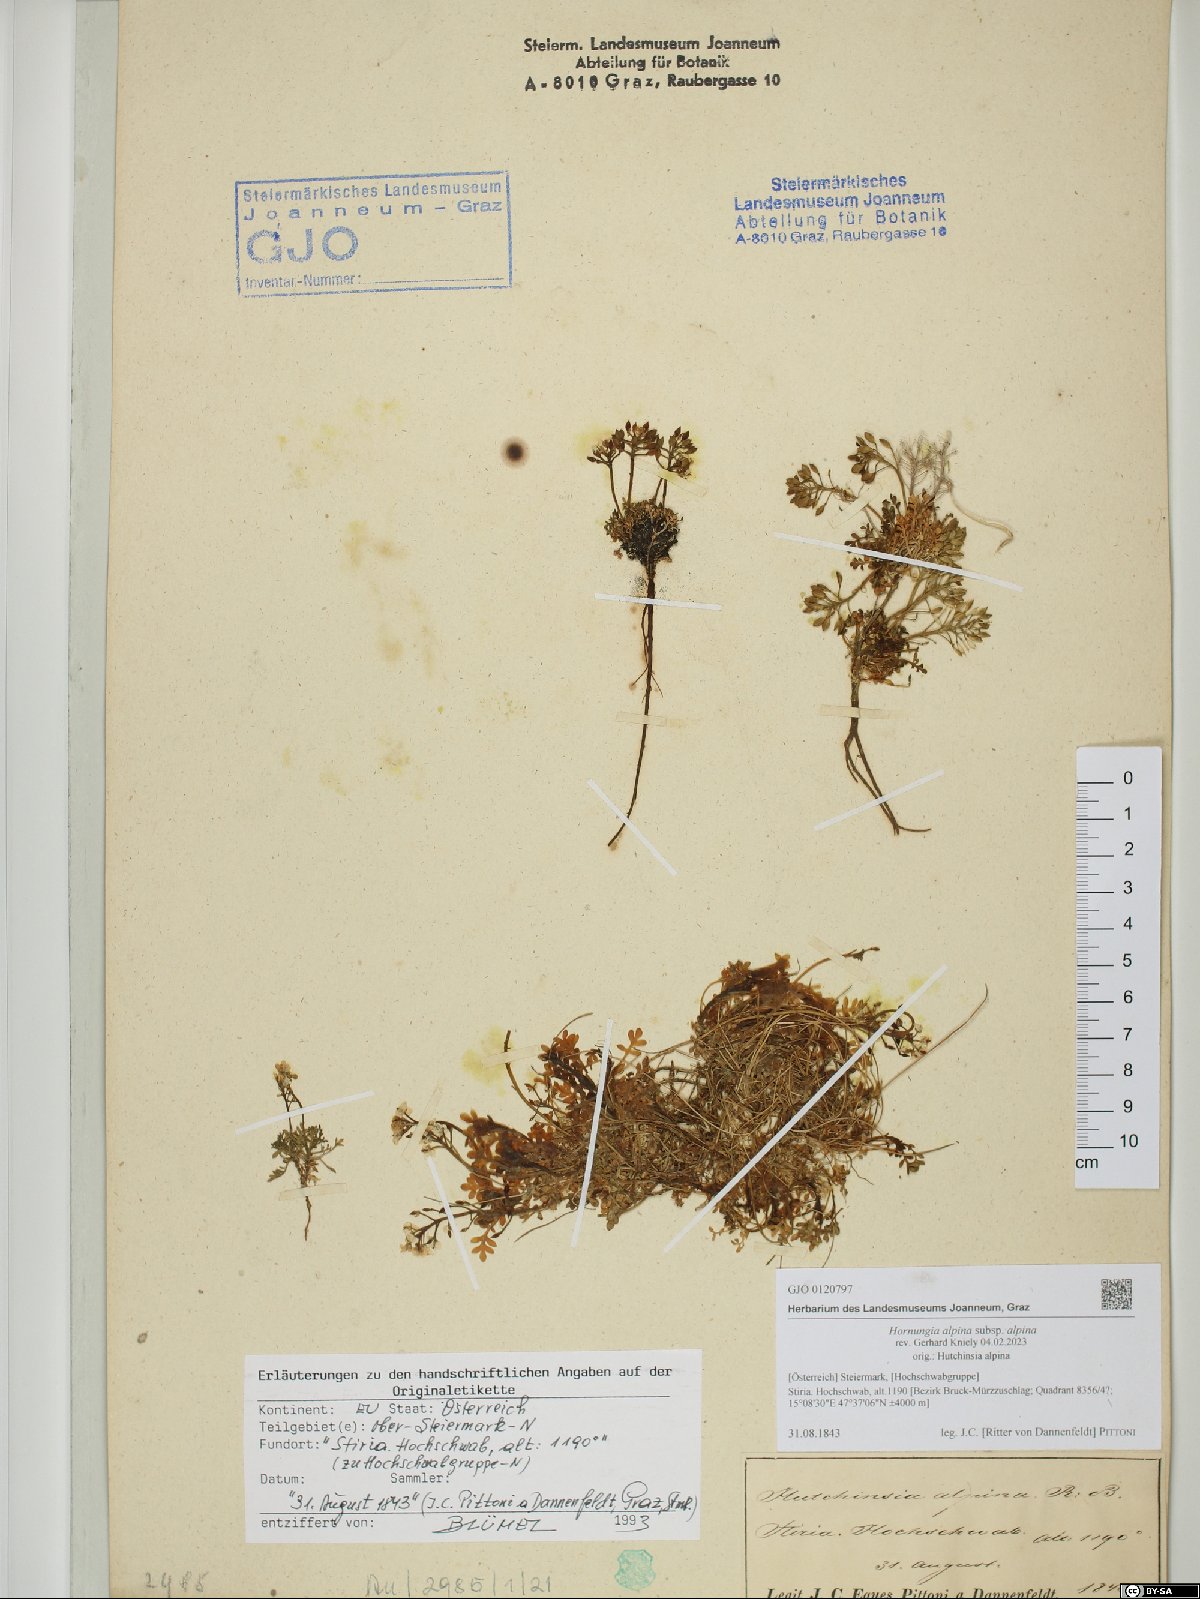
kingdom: Plantae
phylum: Tracheophyta
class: Magnoliopsida
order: Brassicales
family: Brassicaceae
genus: Hornungia
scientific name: Hornungia alpina
